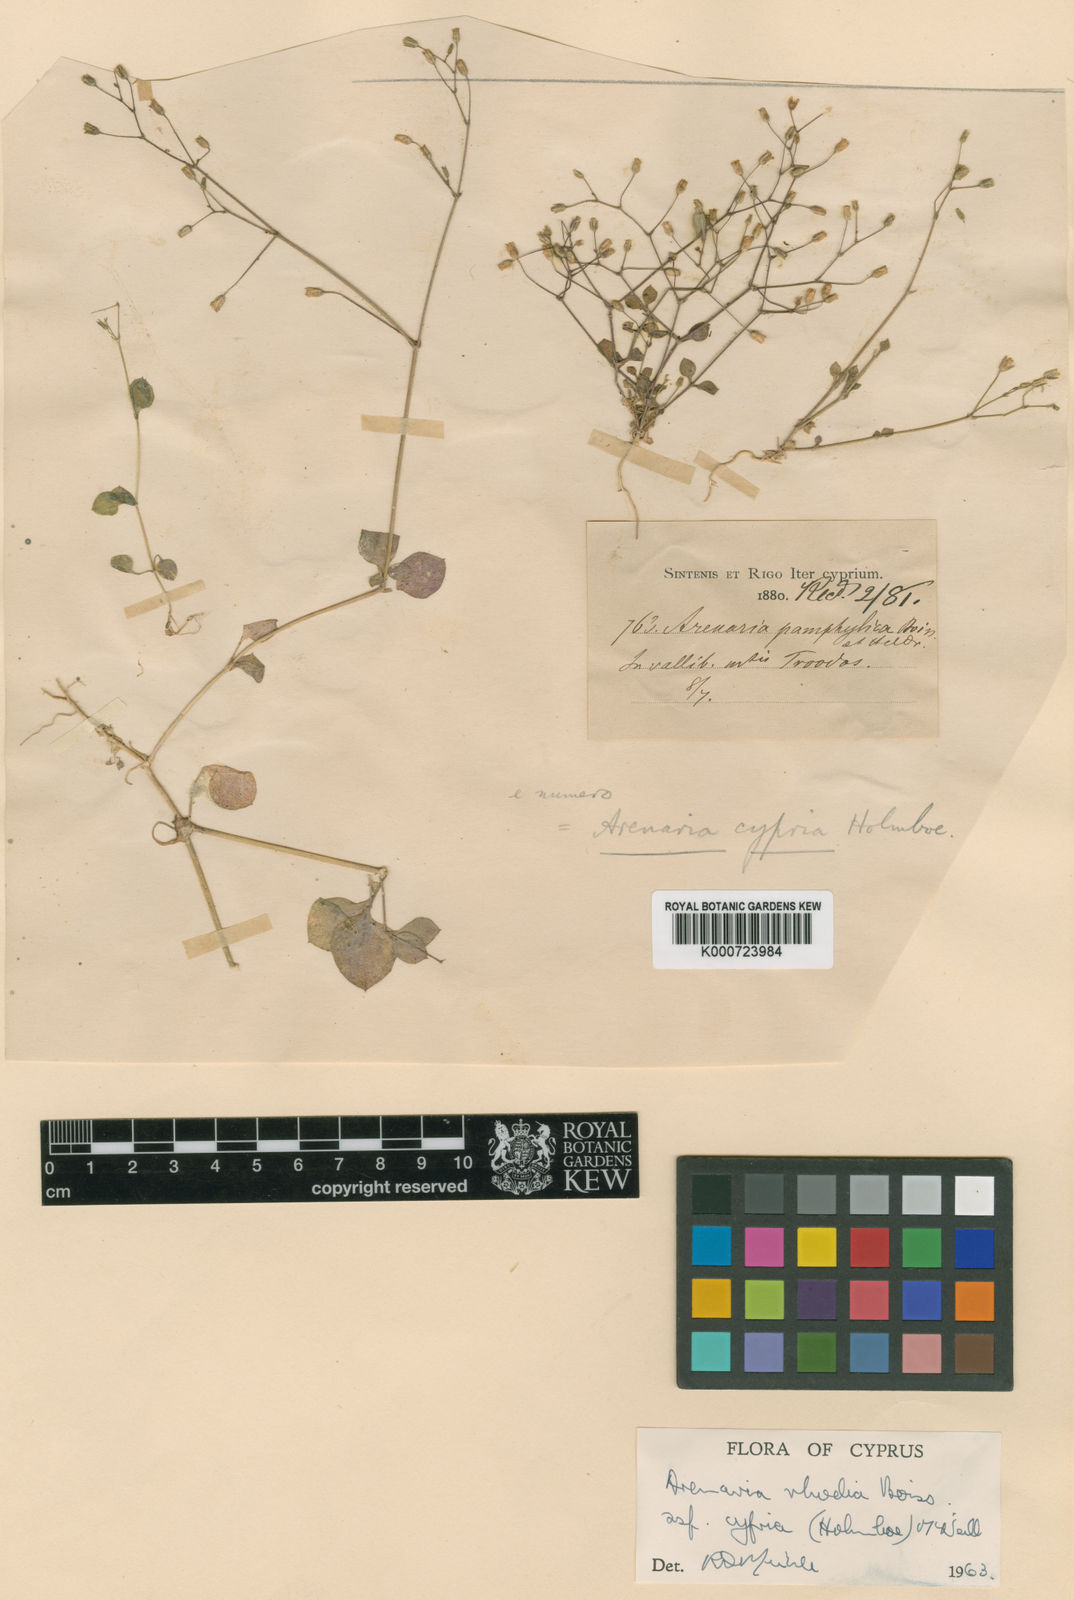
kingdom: Plantae
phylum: Tracheophyta
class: Magnoliopsida
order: Caryophyllales
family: Caryophyllaceae
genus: Arenaria
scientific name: Arenaria rhodia
